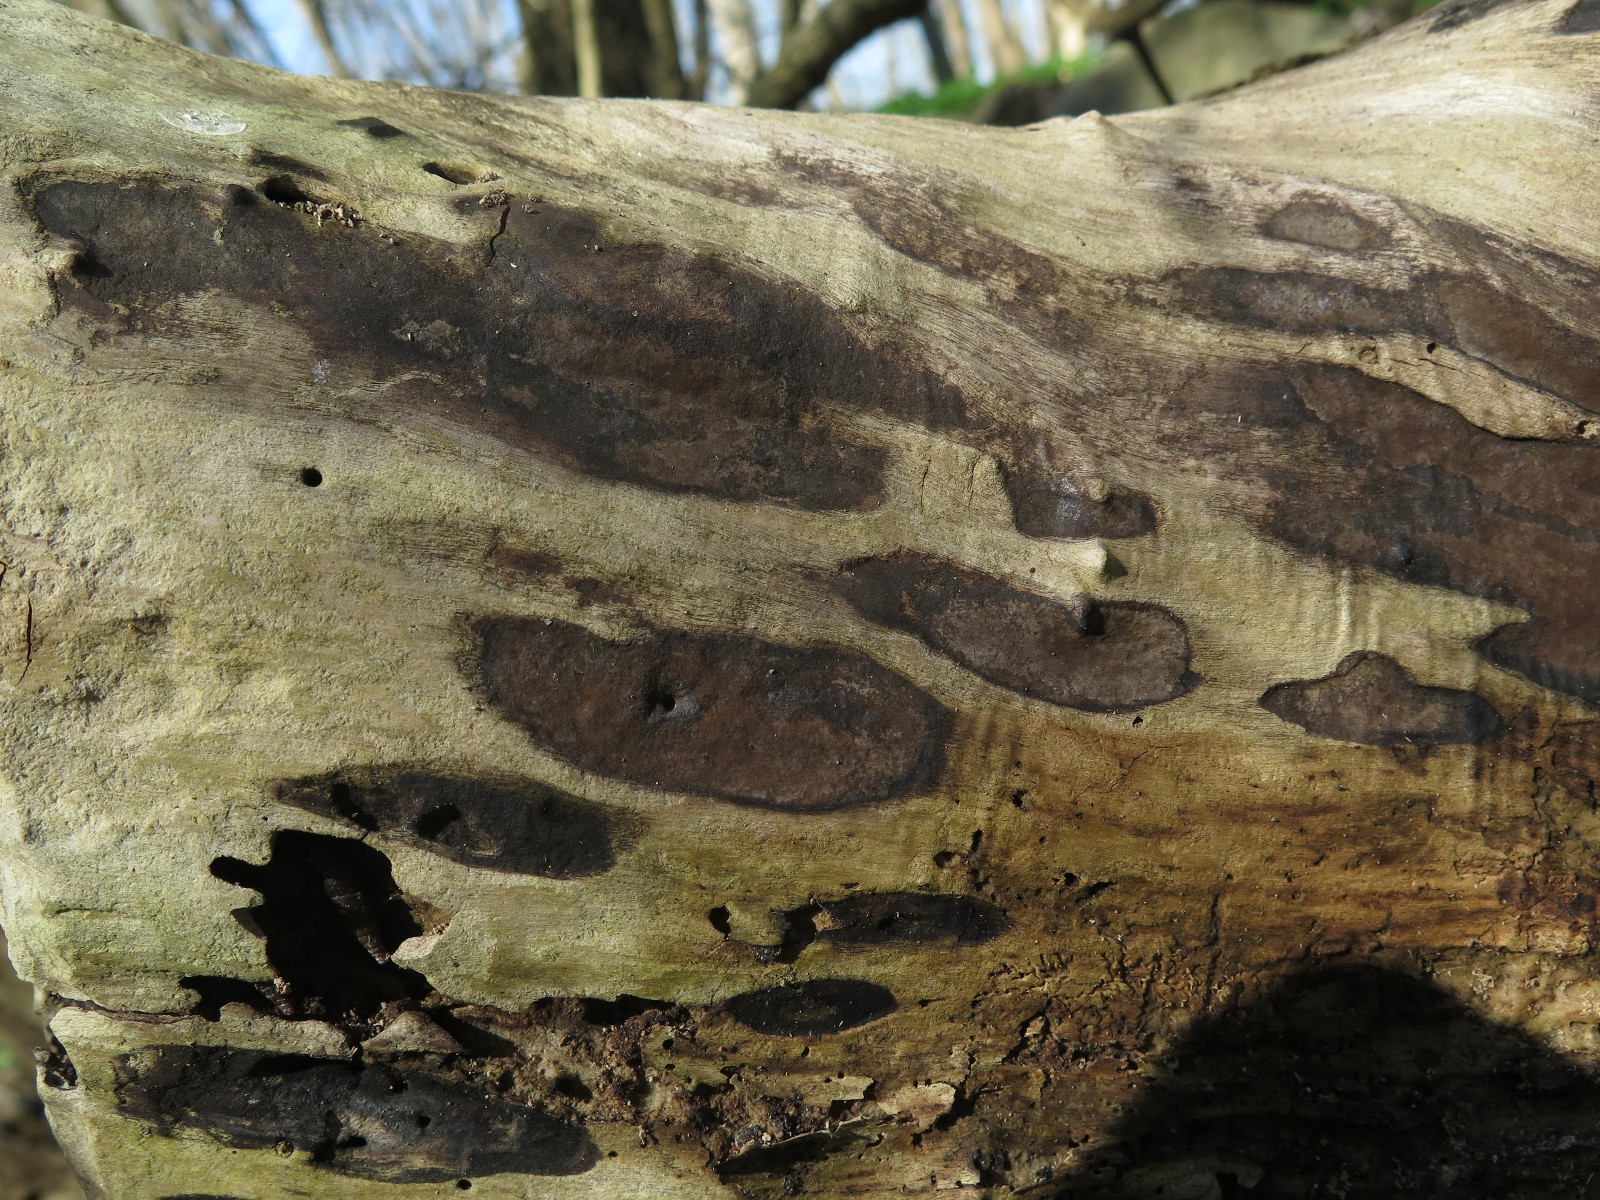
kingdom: Fungi
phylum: Ascomycota
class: Sordariomycetes
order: Xylariales
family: Hypoxylaceae
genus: Hypoxylon
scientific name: Hypoxylon petriniae
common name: nedsænket kulbær
